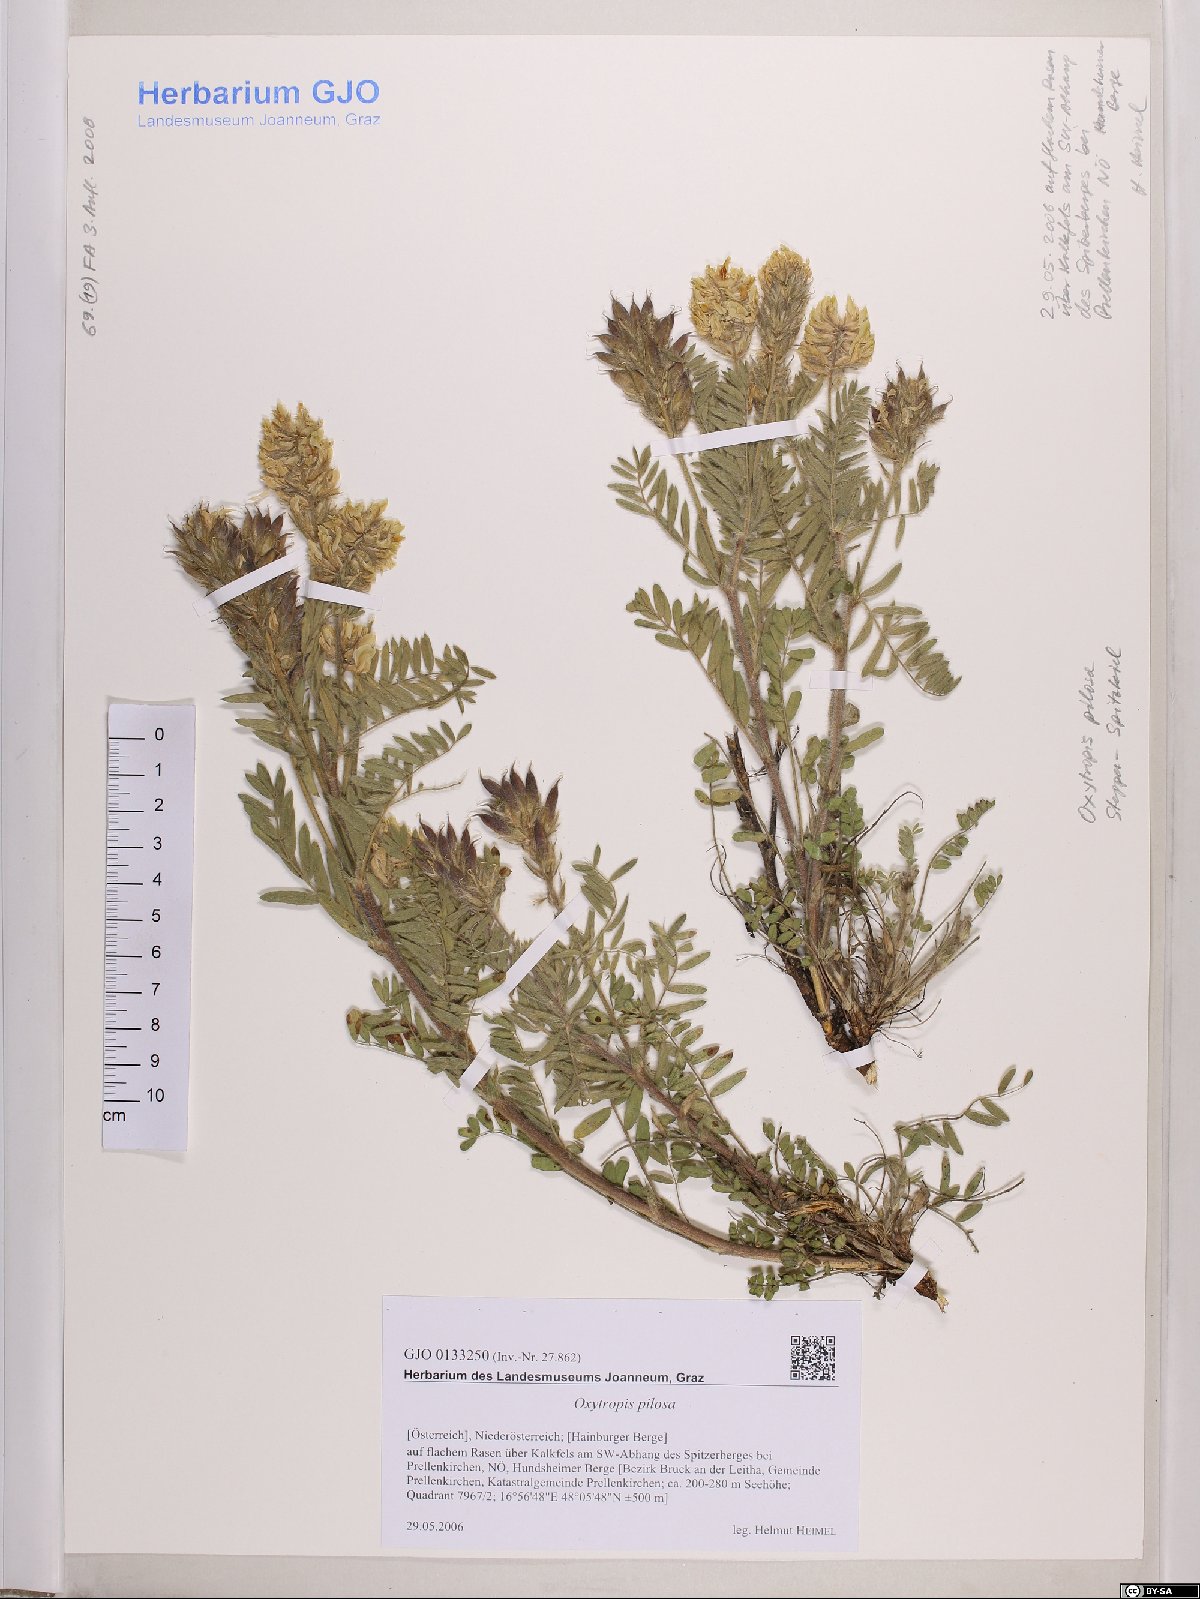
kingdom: Plantae
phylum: Tracheophyta
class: Magnoliopsida
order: Fabales
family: Fabaceae
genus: Oxytropis
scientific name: Oxytropis pilosa
